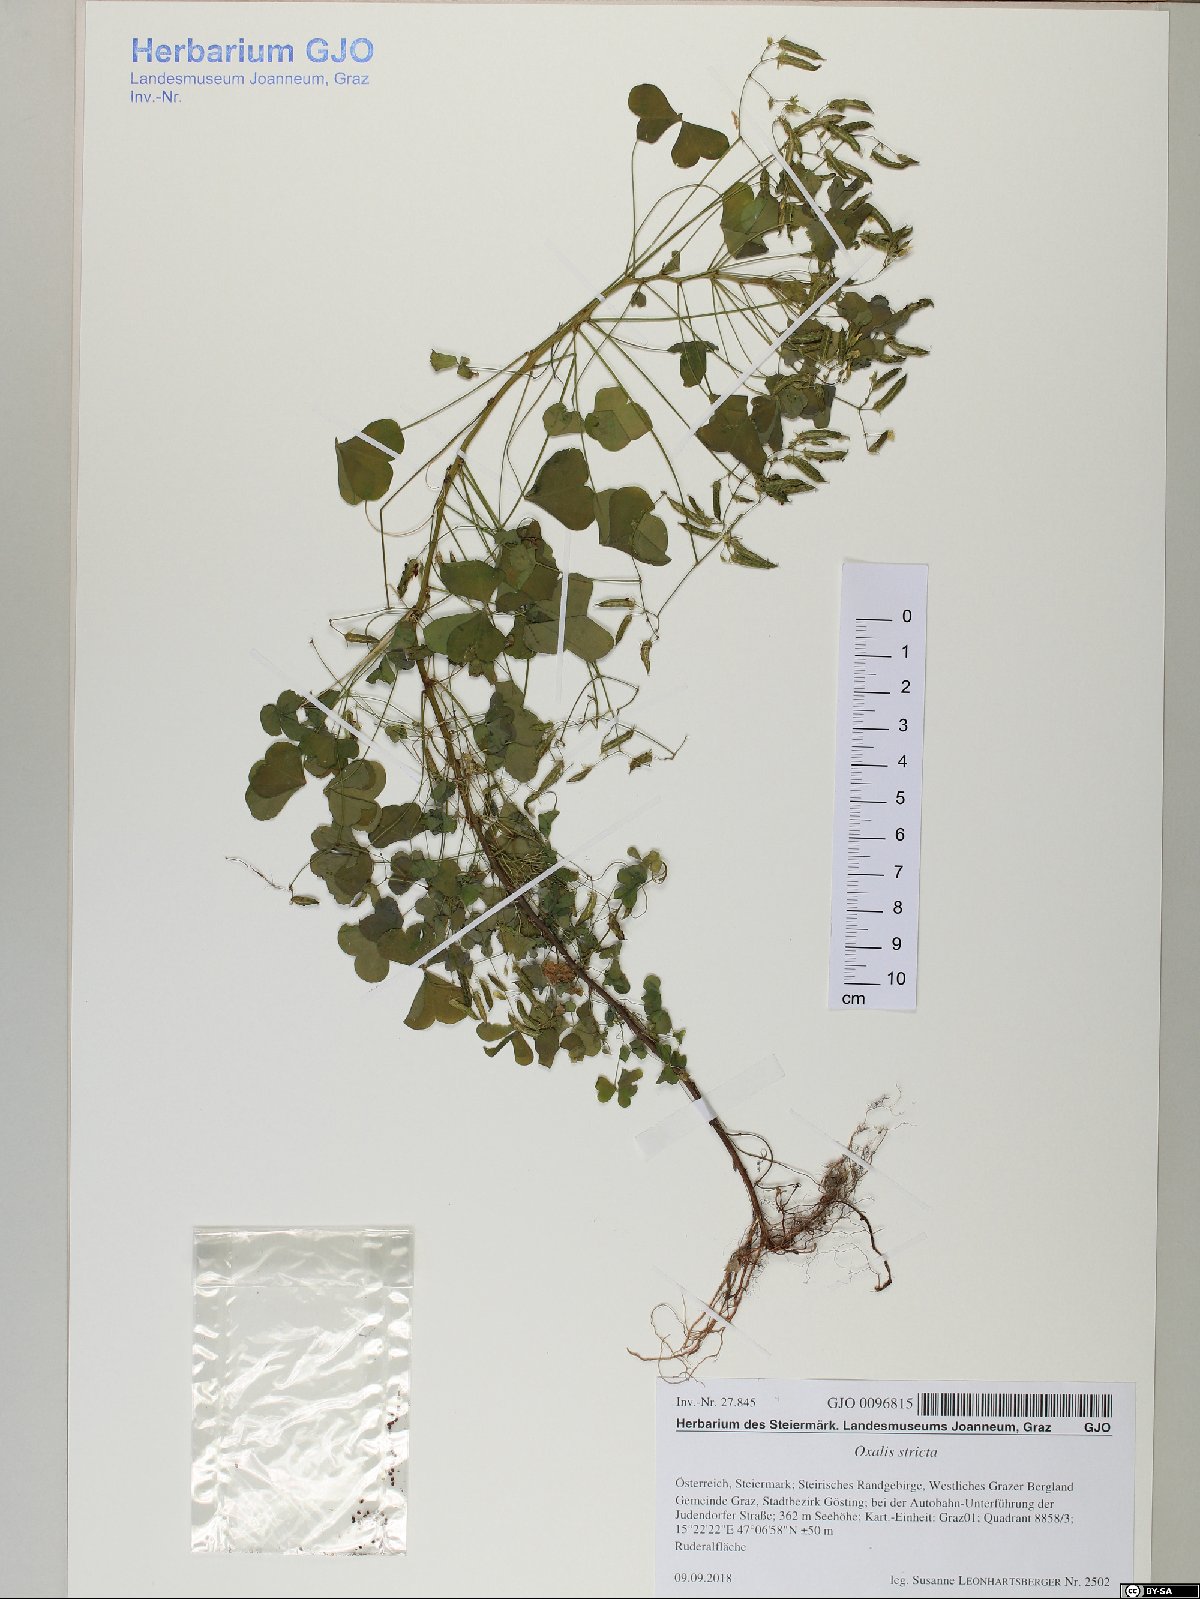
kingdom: Plantae
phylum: Tracheophyta
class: Magnoliopsida
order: Oxalidales
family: Oxalidaceae
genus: Oxalis
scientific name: Oxalis stricta
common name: Upright yellow-sorrel
